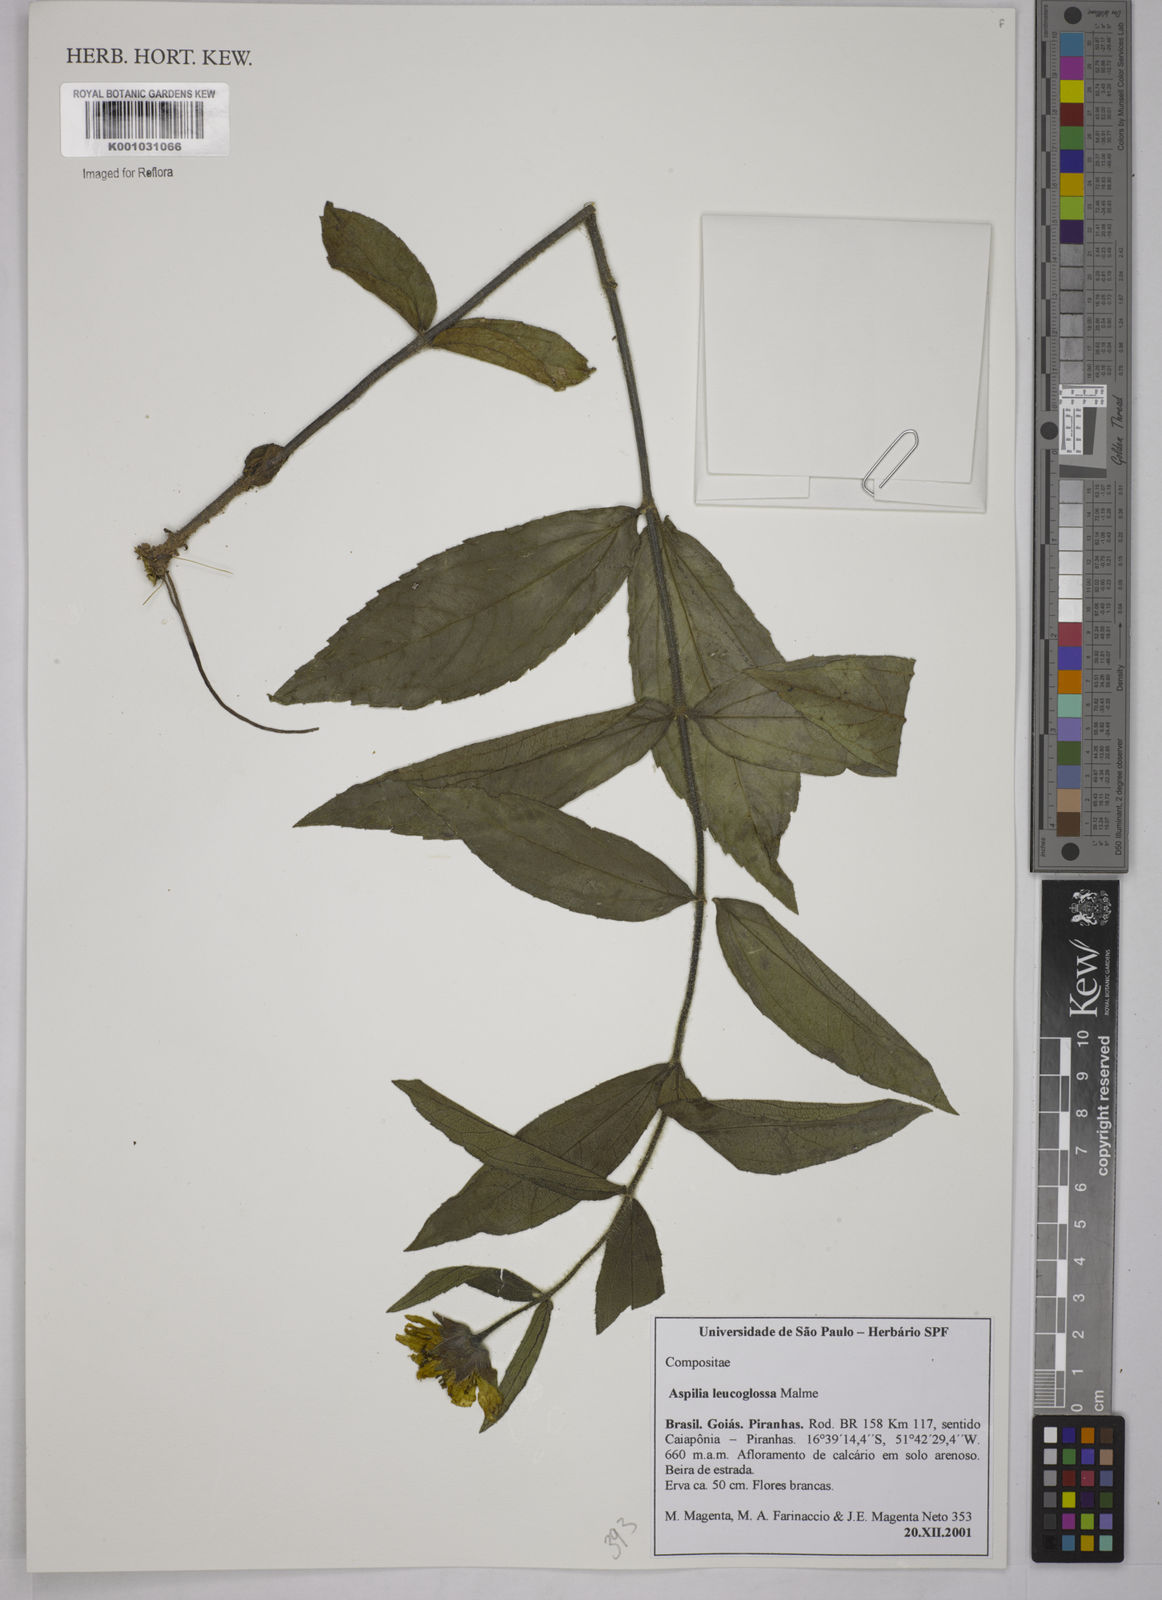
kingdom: Plantae
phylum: Tracheophyta
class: Magnoliopsida
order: Asterales
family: Asteraceae
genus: Wedelia
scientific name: Wedelia leucoglossa
